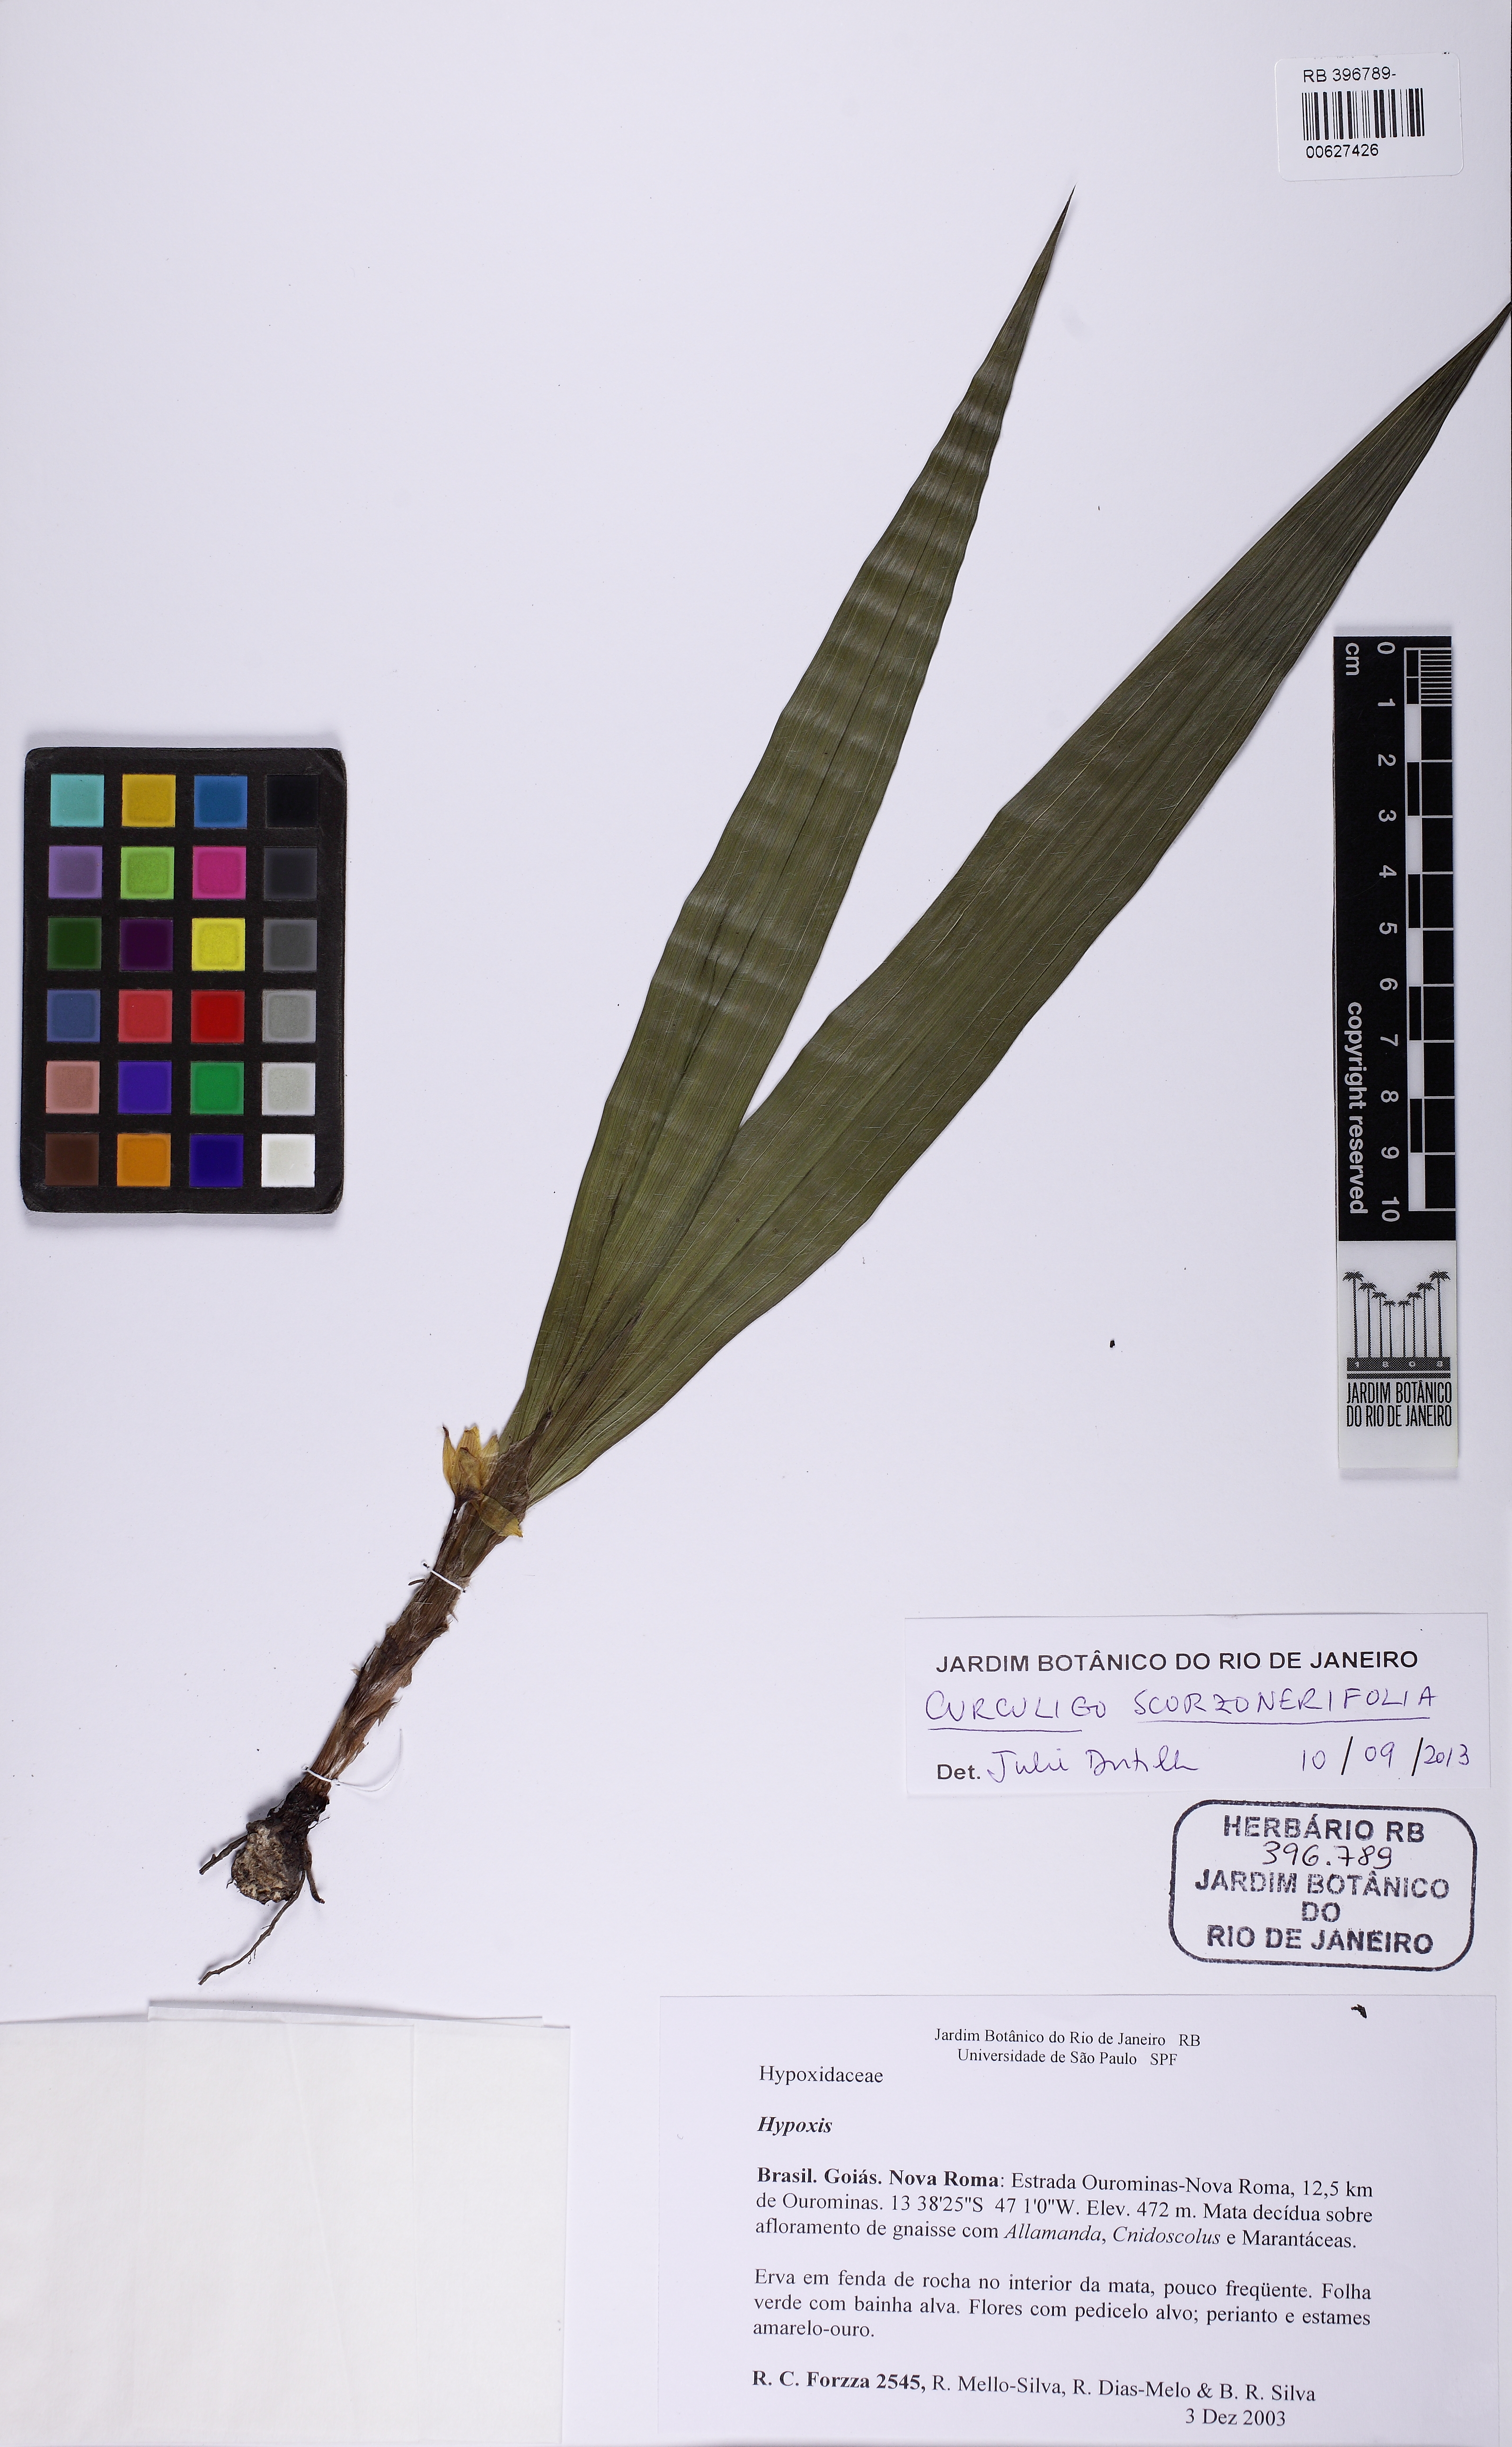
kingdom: Plantae
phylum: Tracheophyta
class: Liliopsida
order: Asparagales
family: Hypoxidaceae
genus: Curculigo
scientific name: Curculigo scorzonerifolia
